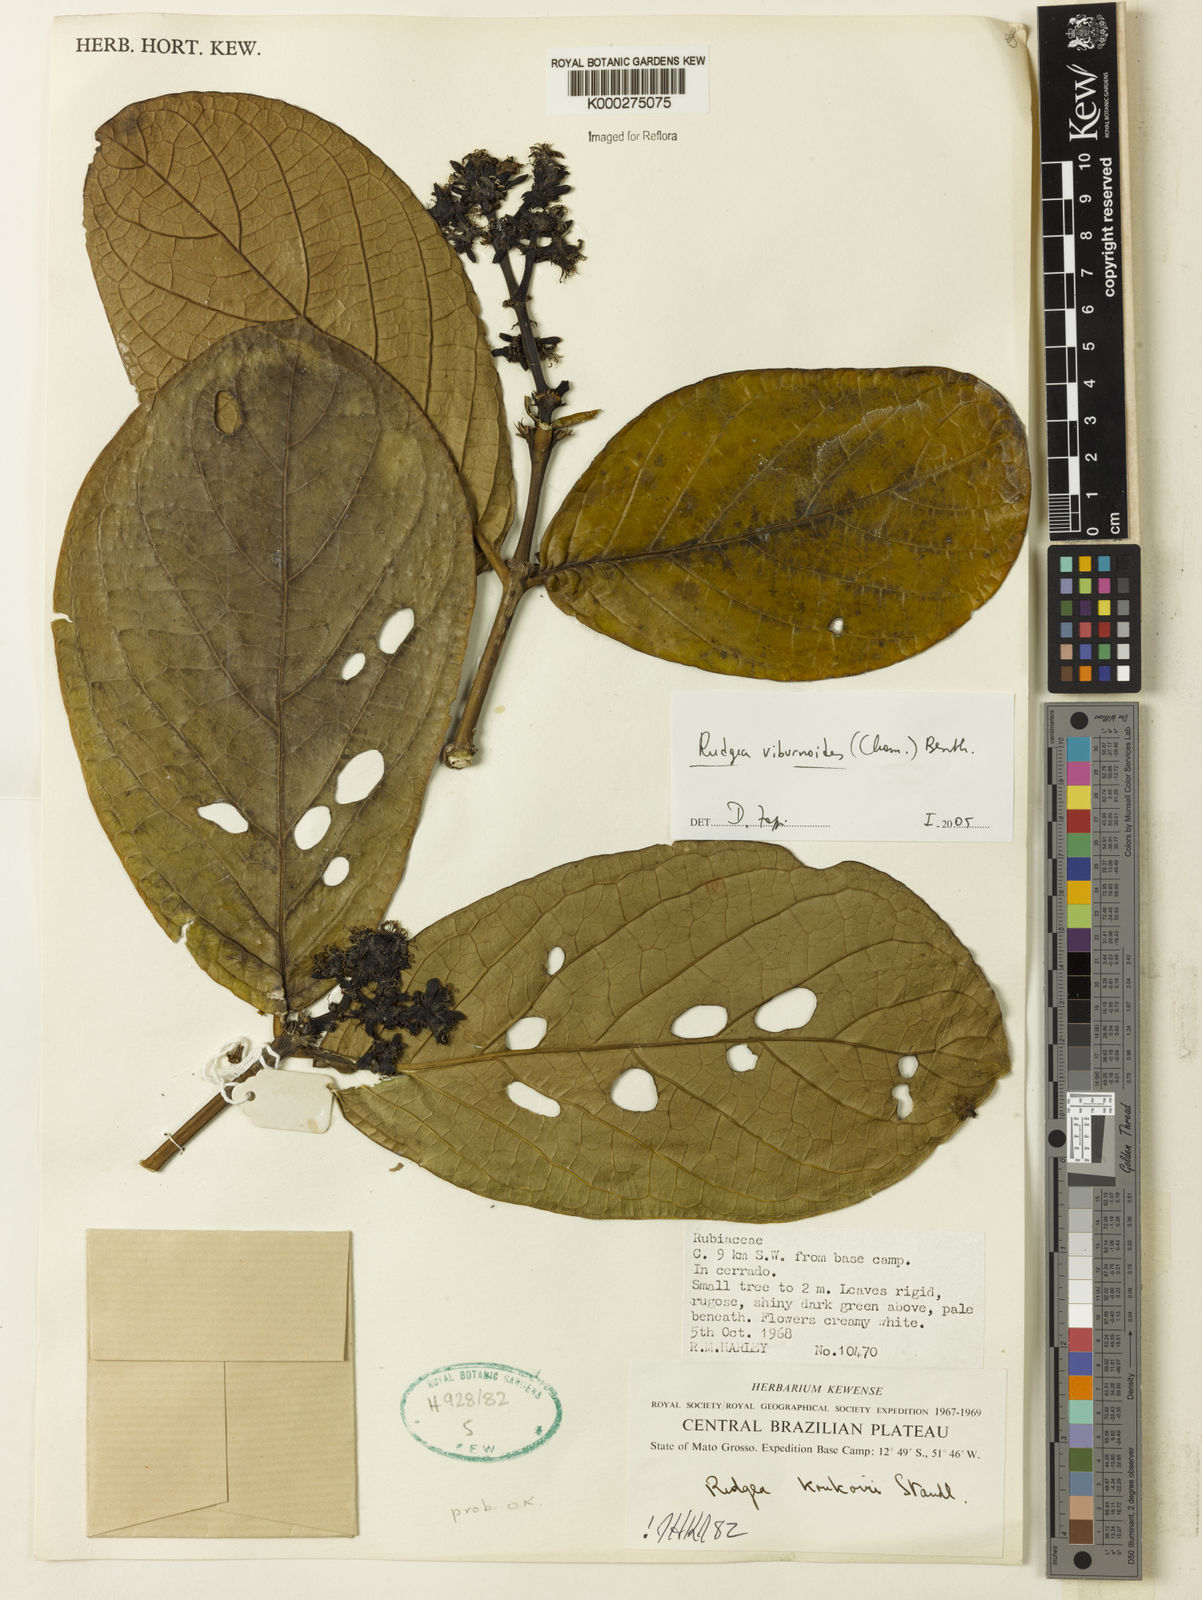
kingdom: Plantae
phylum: Tracheophyta
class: Magnoliopsida
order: Gentianales
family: Rubiaceae
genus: Rudgea
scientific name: Rudgea viburnoides
